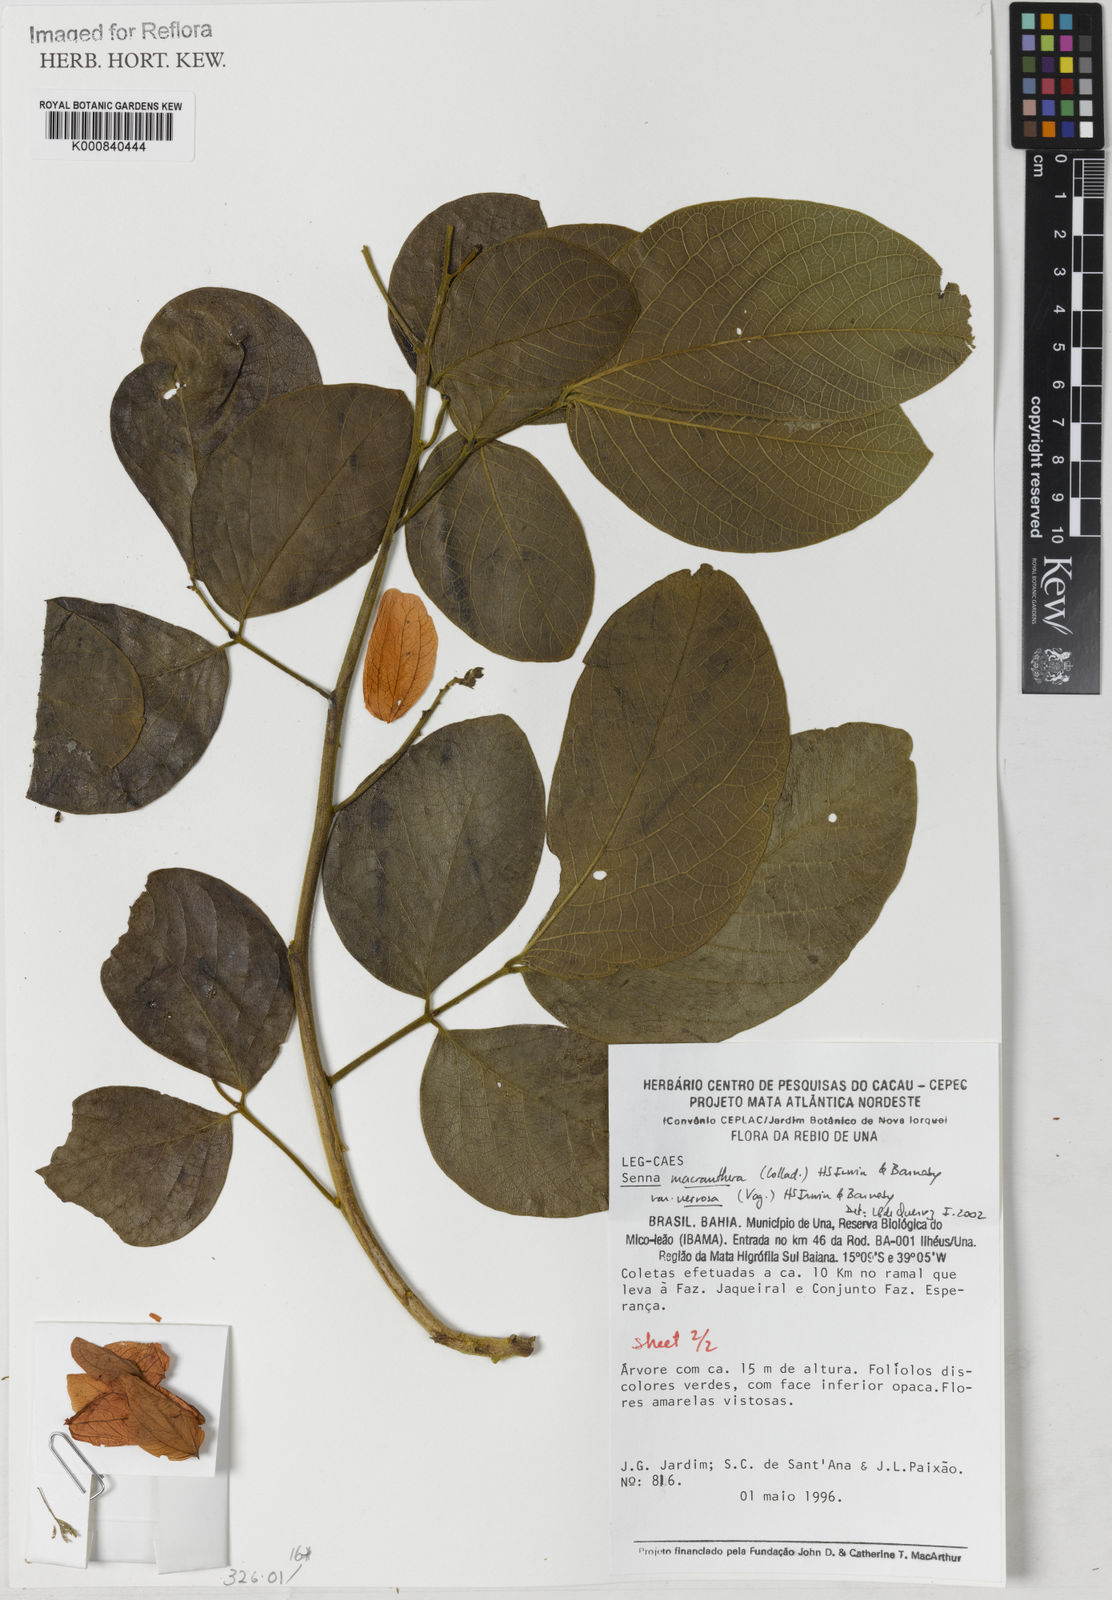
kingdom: Plantae
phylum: Tracheophyta
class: Magnoliopsida
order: Fabales
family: Fabaceae
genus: Senna
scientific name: Senna macranthera
